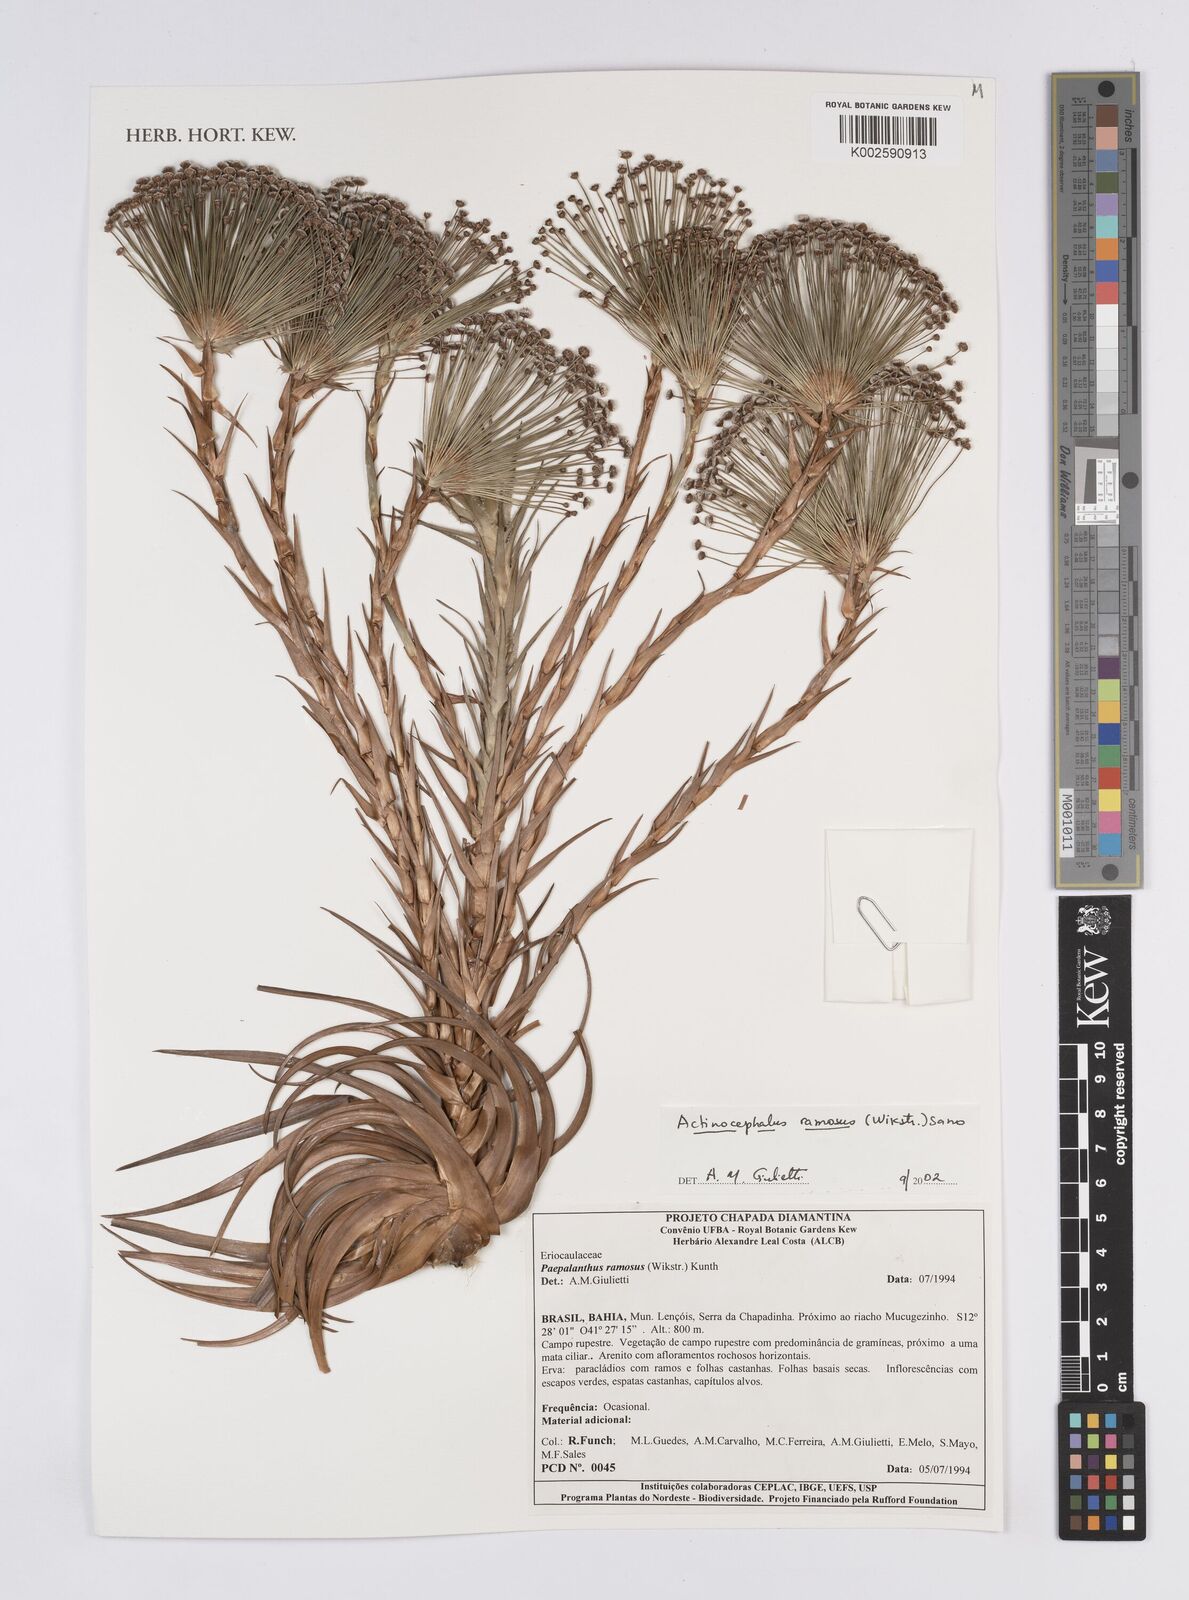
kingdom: Plantae
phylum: Tracheophyta
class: Liliopsida
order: Poales
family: Eriocaulaceae
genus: Paepalanthus
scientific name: Paepalanthus ramosus
